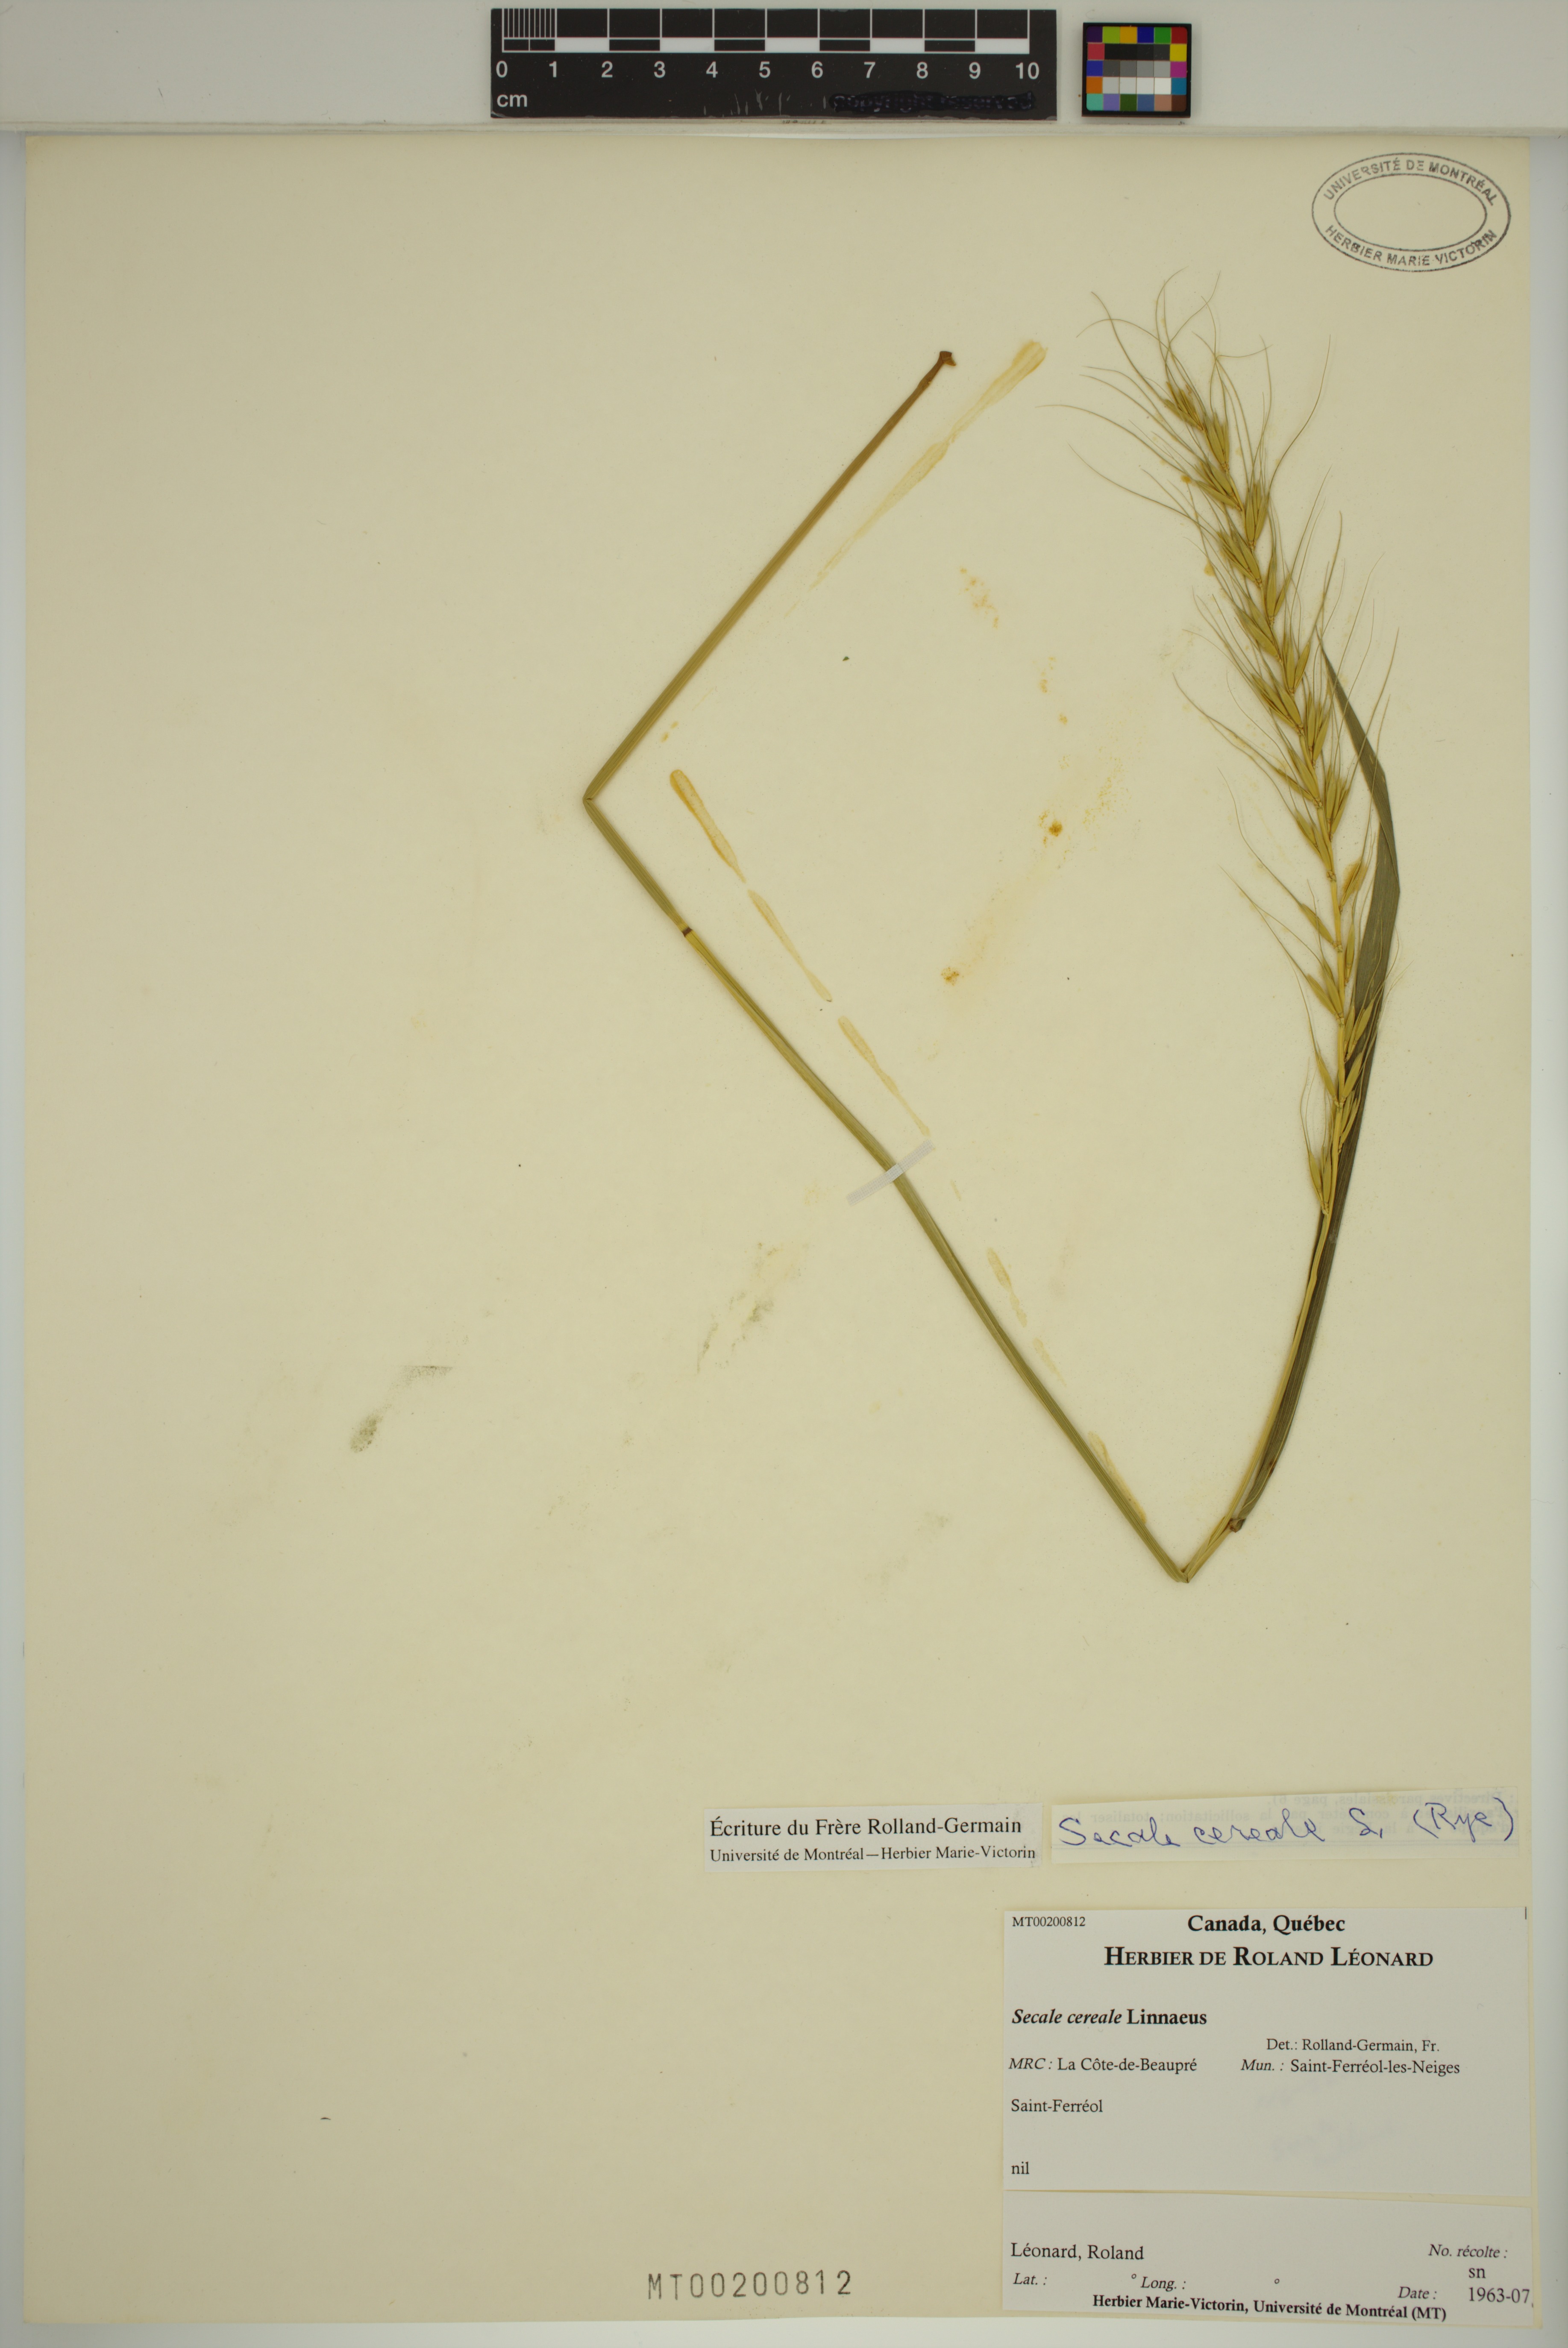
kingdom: Plantae
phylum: Tracheophyta
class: Liliopsida
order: Poales
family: Poaceae
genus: Secale
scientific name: Secale cereale
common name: Rye
